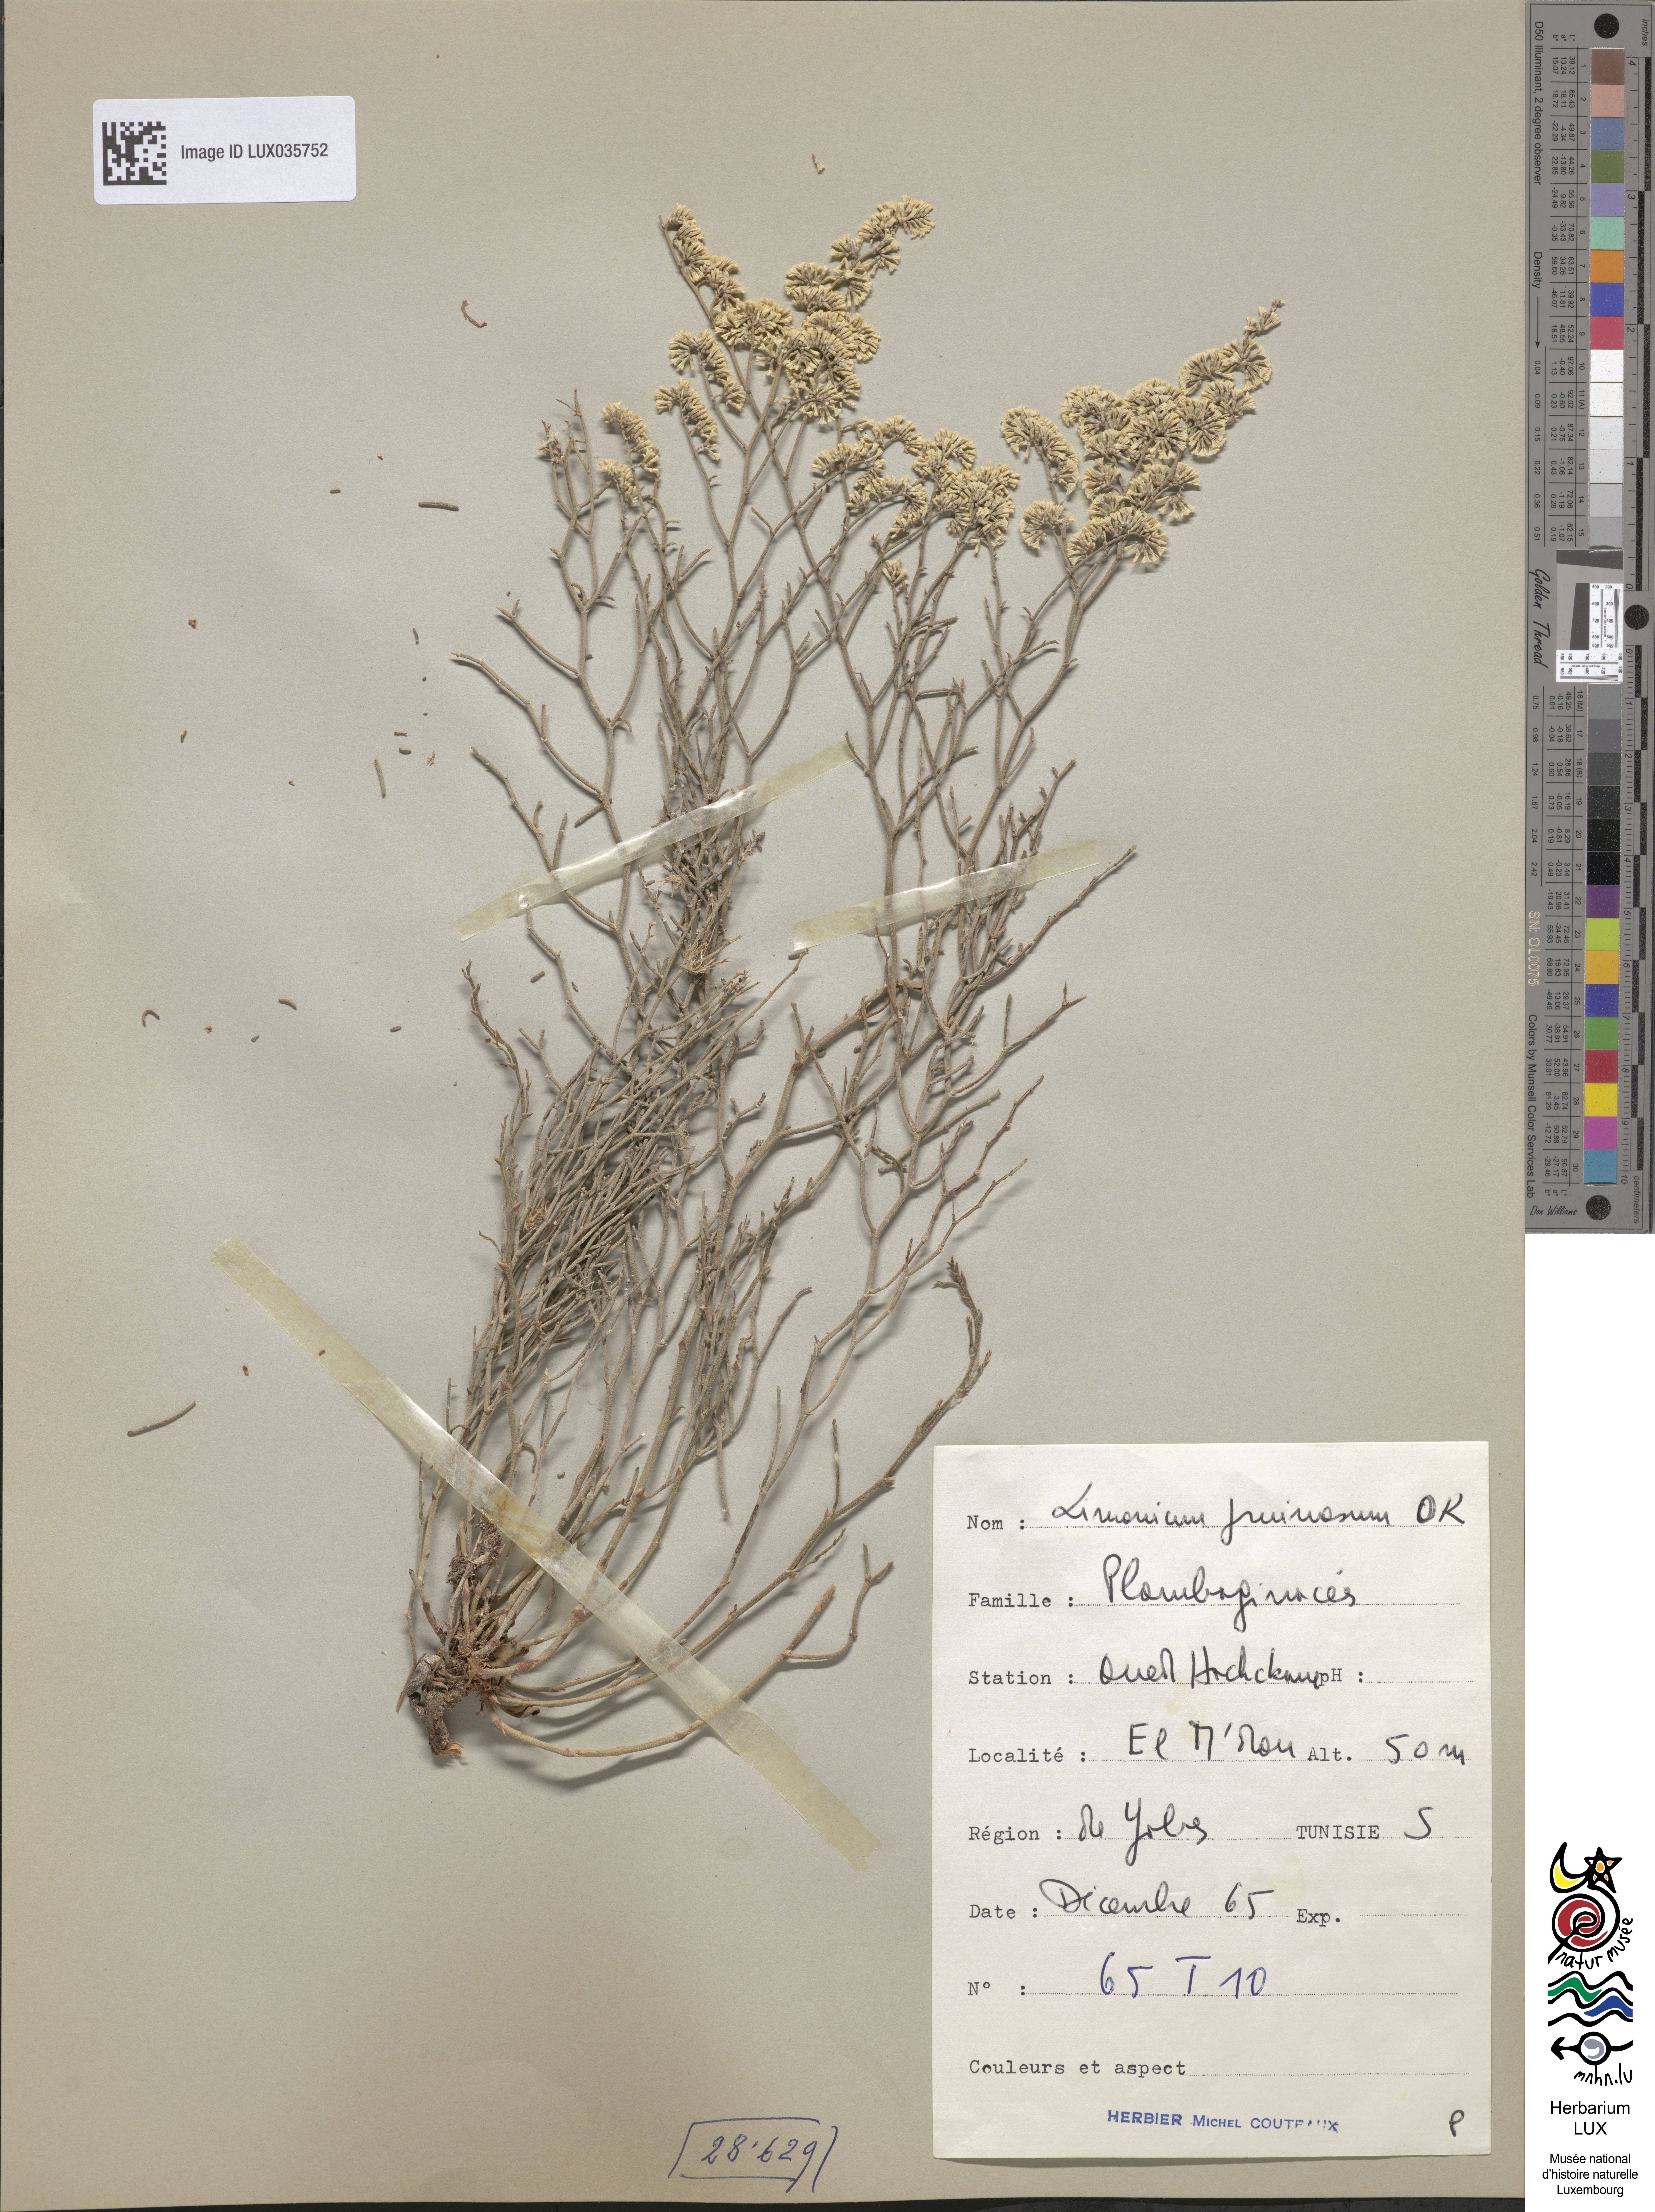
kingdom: Plantae
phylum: Tracheophyta
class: Magnoliopsida
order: Caryophyllales
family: Plumbaginaceae
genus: Limonium
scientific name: Limonium
